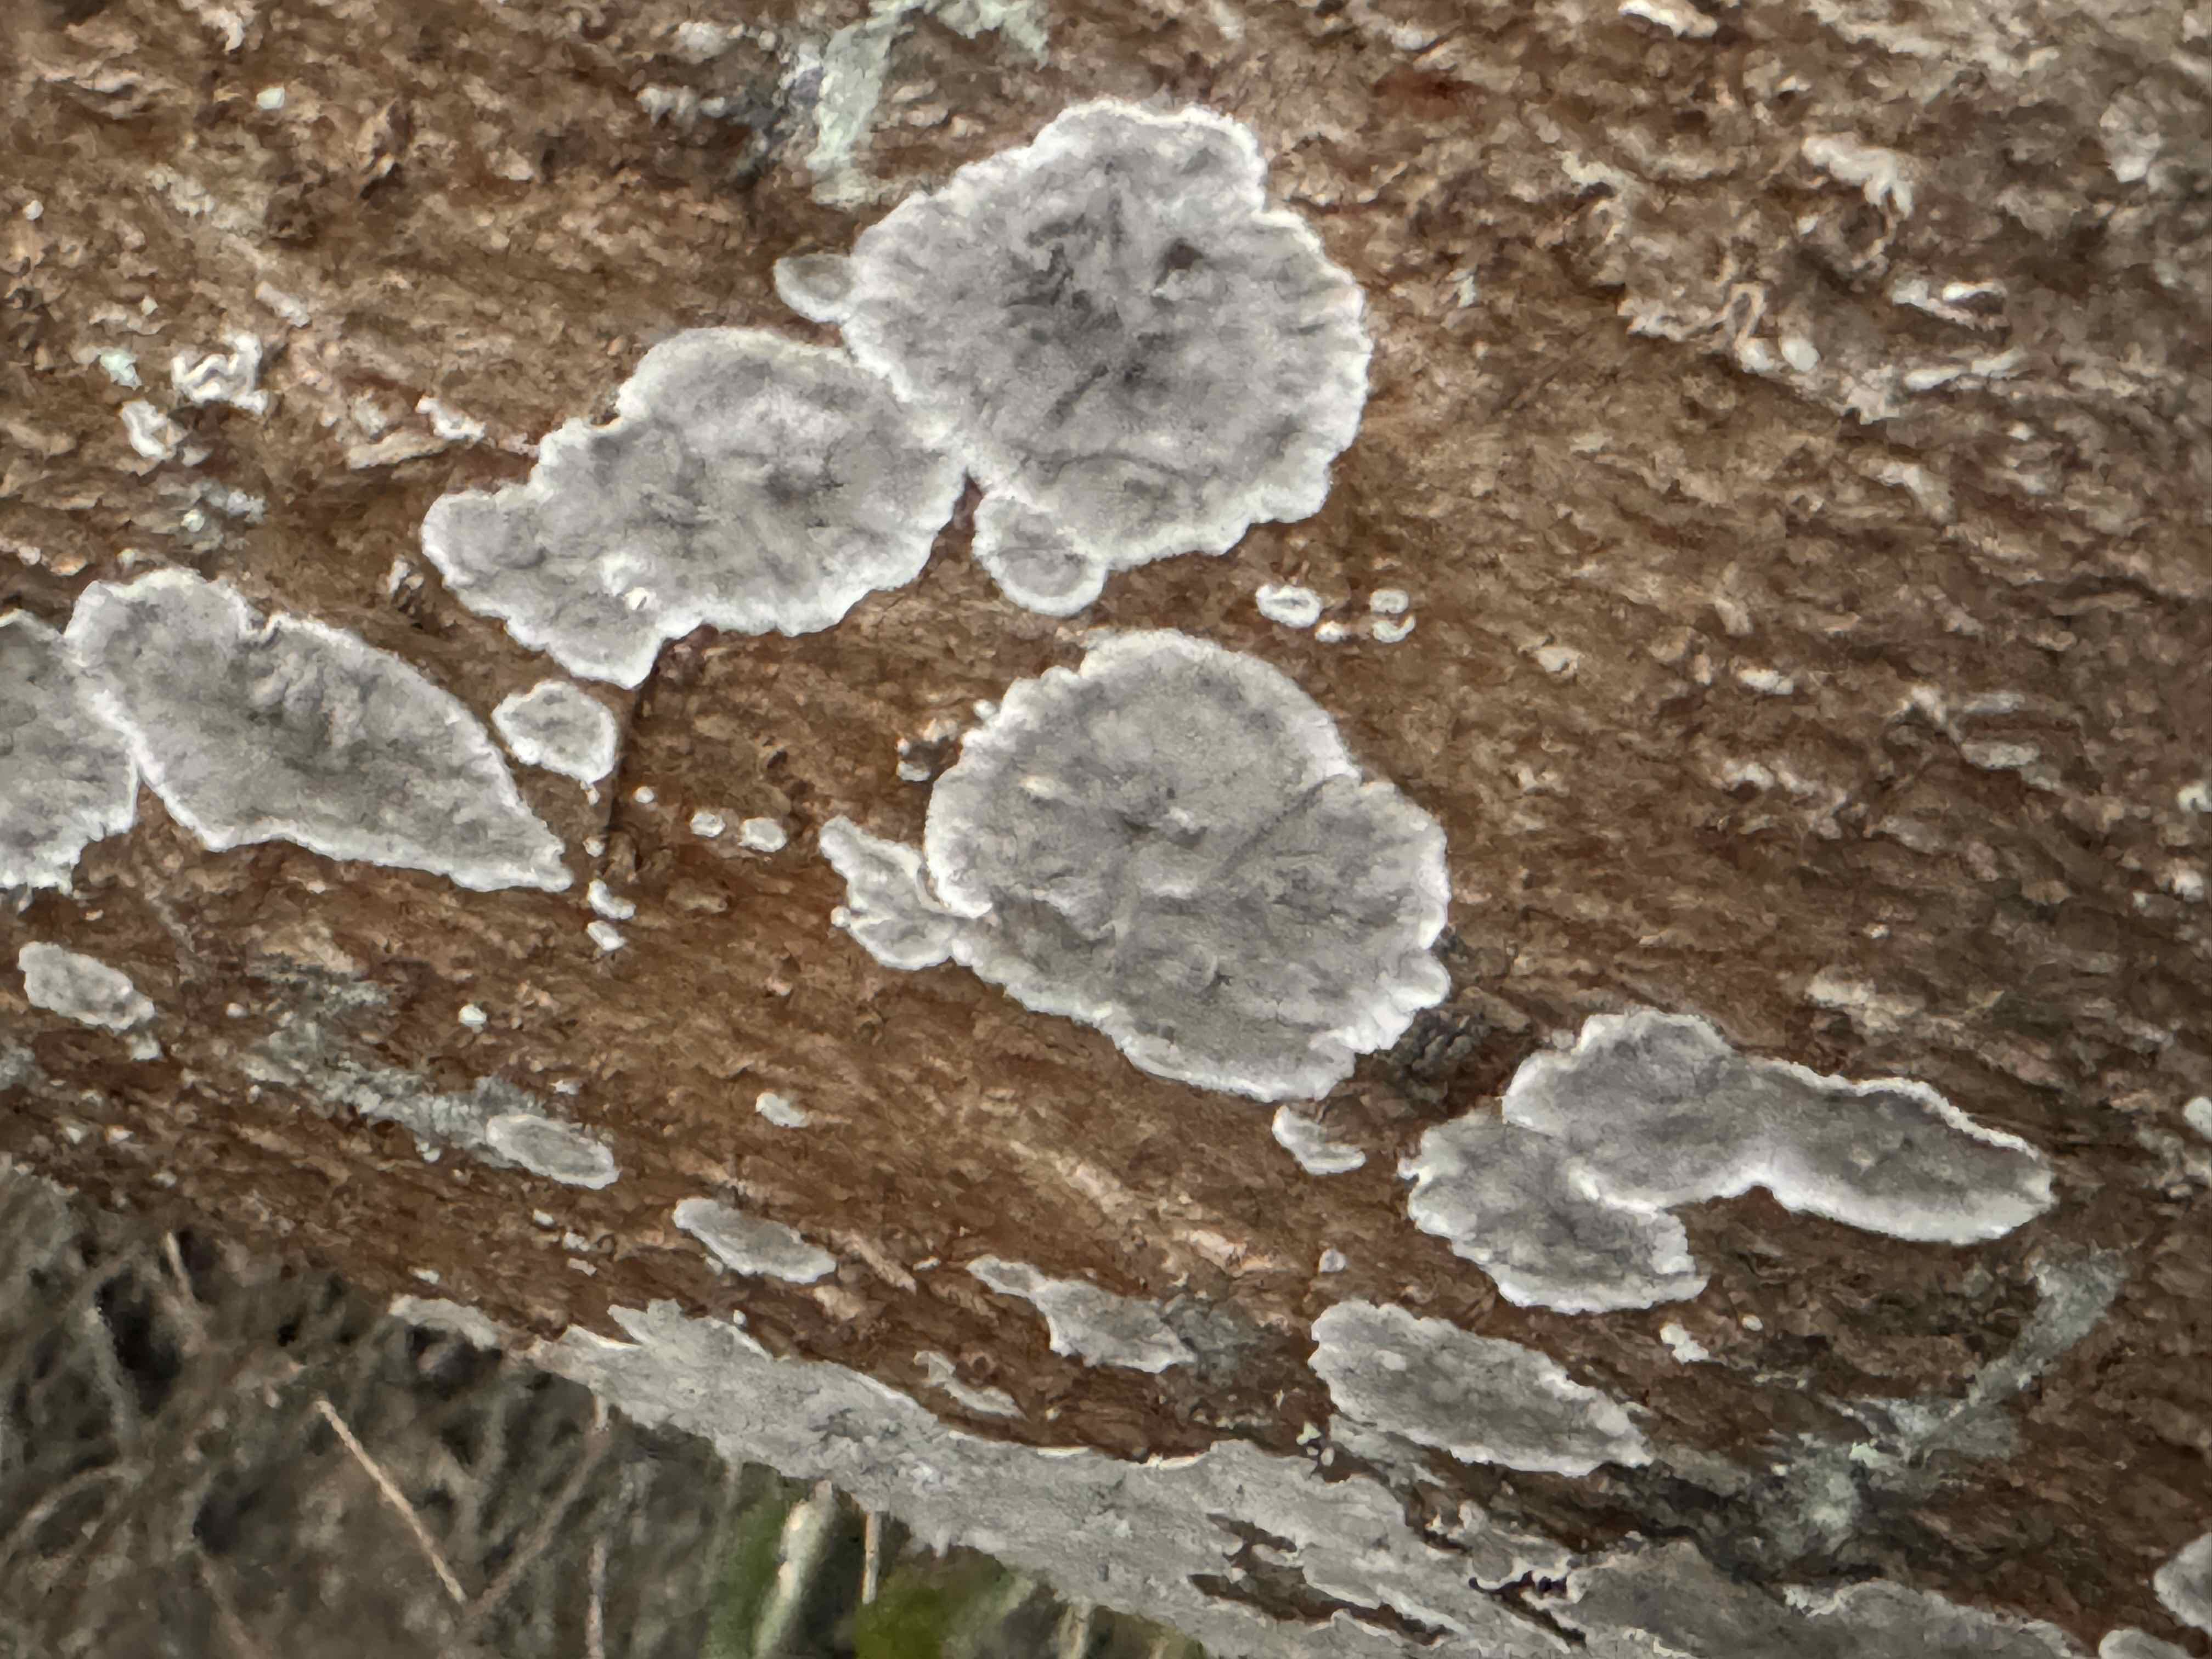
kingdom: Fungi
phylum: Basidiomycota
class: Agaricomycetes
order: Polyporales
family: Phanerochaetaceae
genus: Bjerkandera
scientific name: Bjerkandera adusta
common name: sveden sodporesvamp
